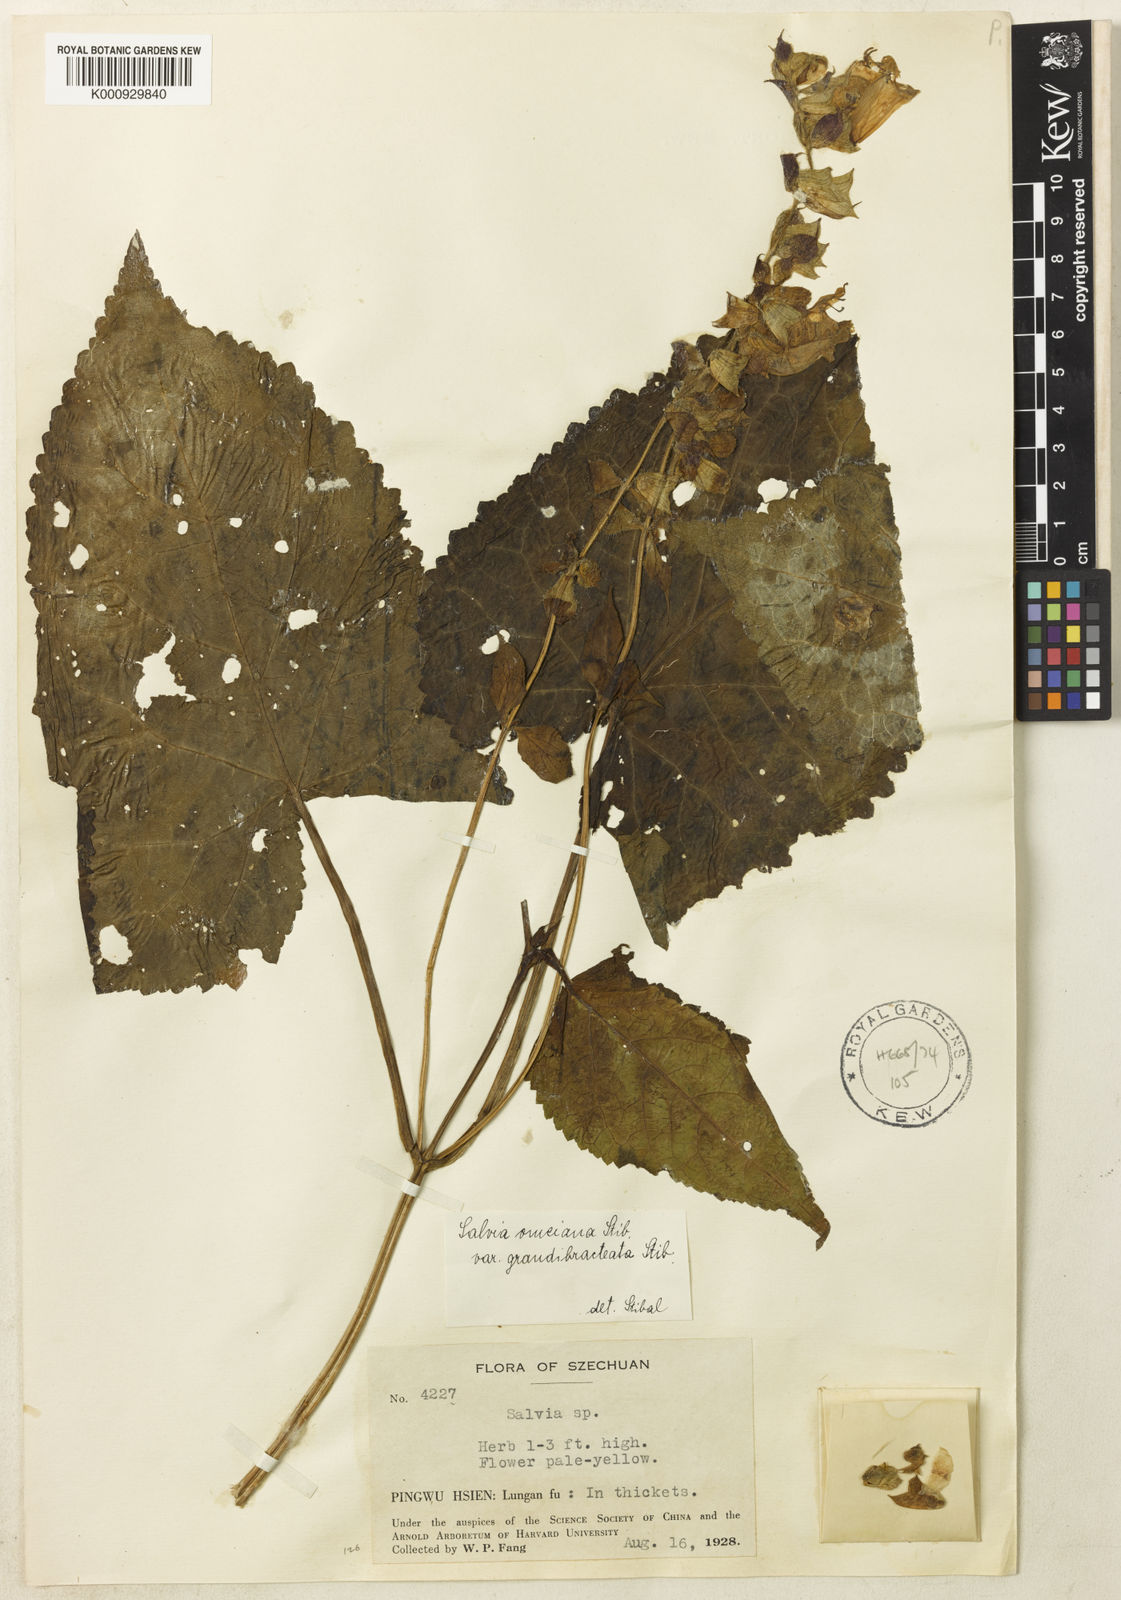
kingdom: Plantae
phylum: Tracheophyta
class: Magnoliopsida
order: Lamiales
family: Lamiaceae
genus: Salvia
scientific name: Salvia
